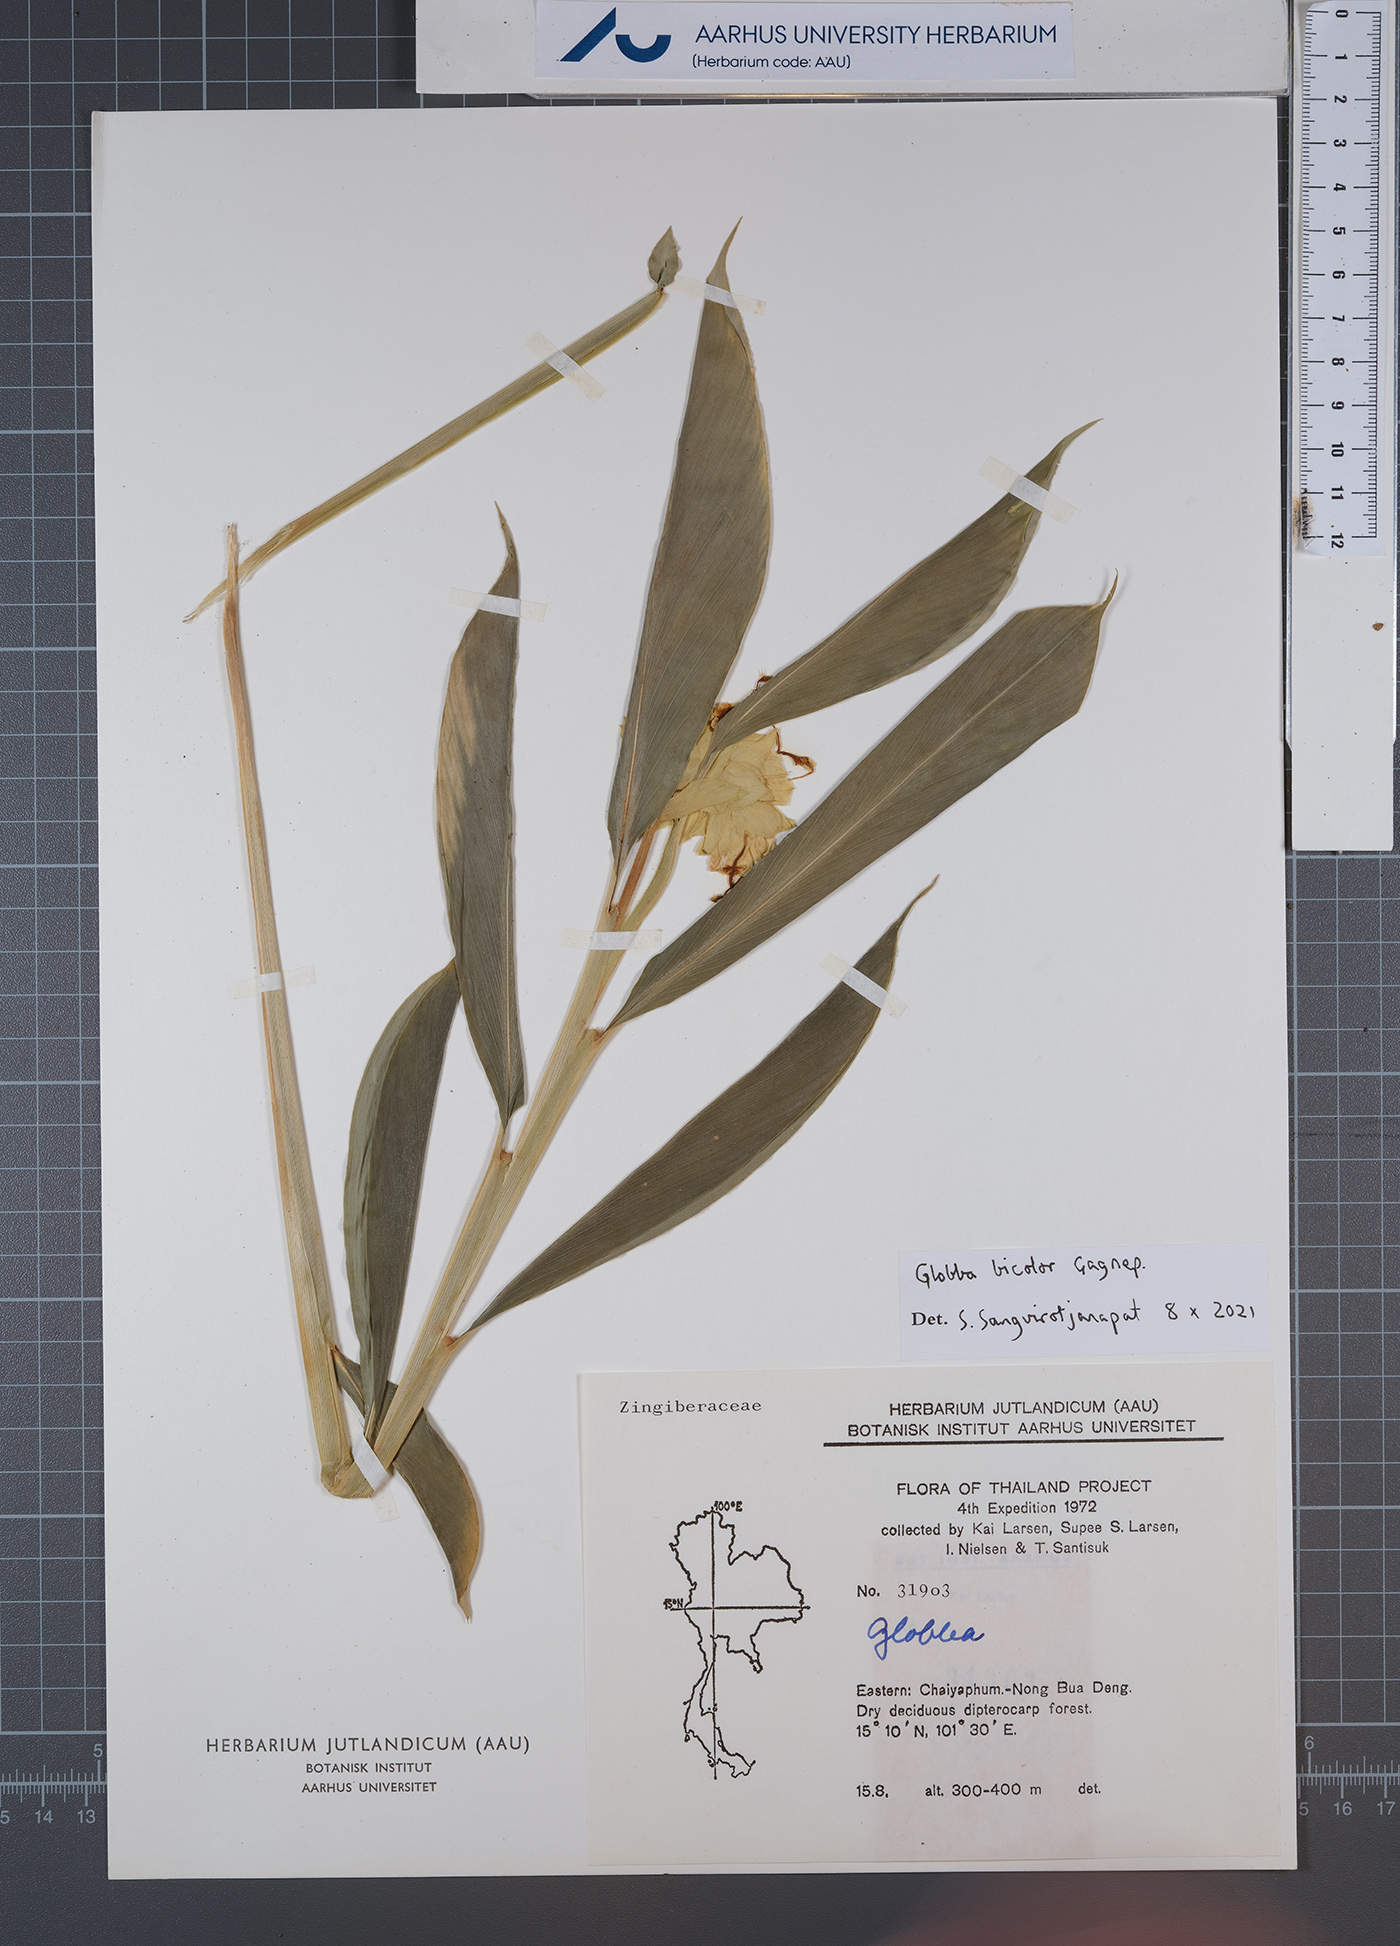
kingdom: Plantae
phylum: Tracheophyta
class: Liliopsida
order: Zingiberales
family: Zingiberaceae
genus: Globba
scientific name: Globba bicolor
